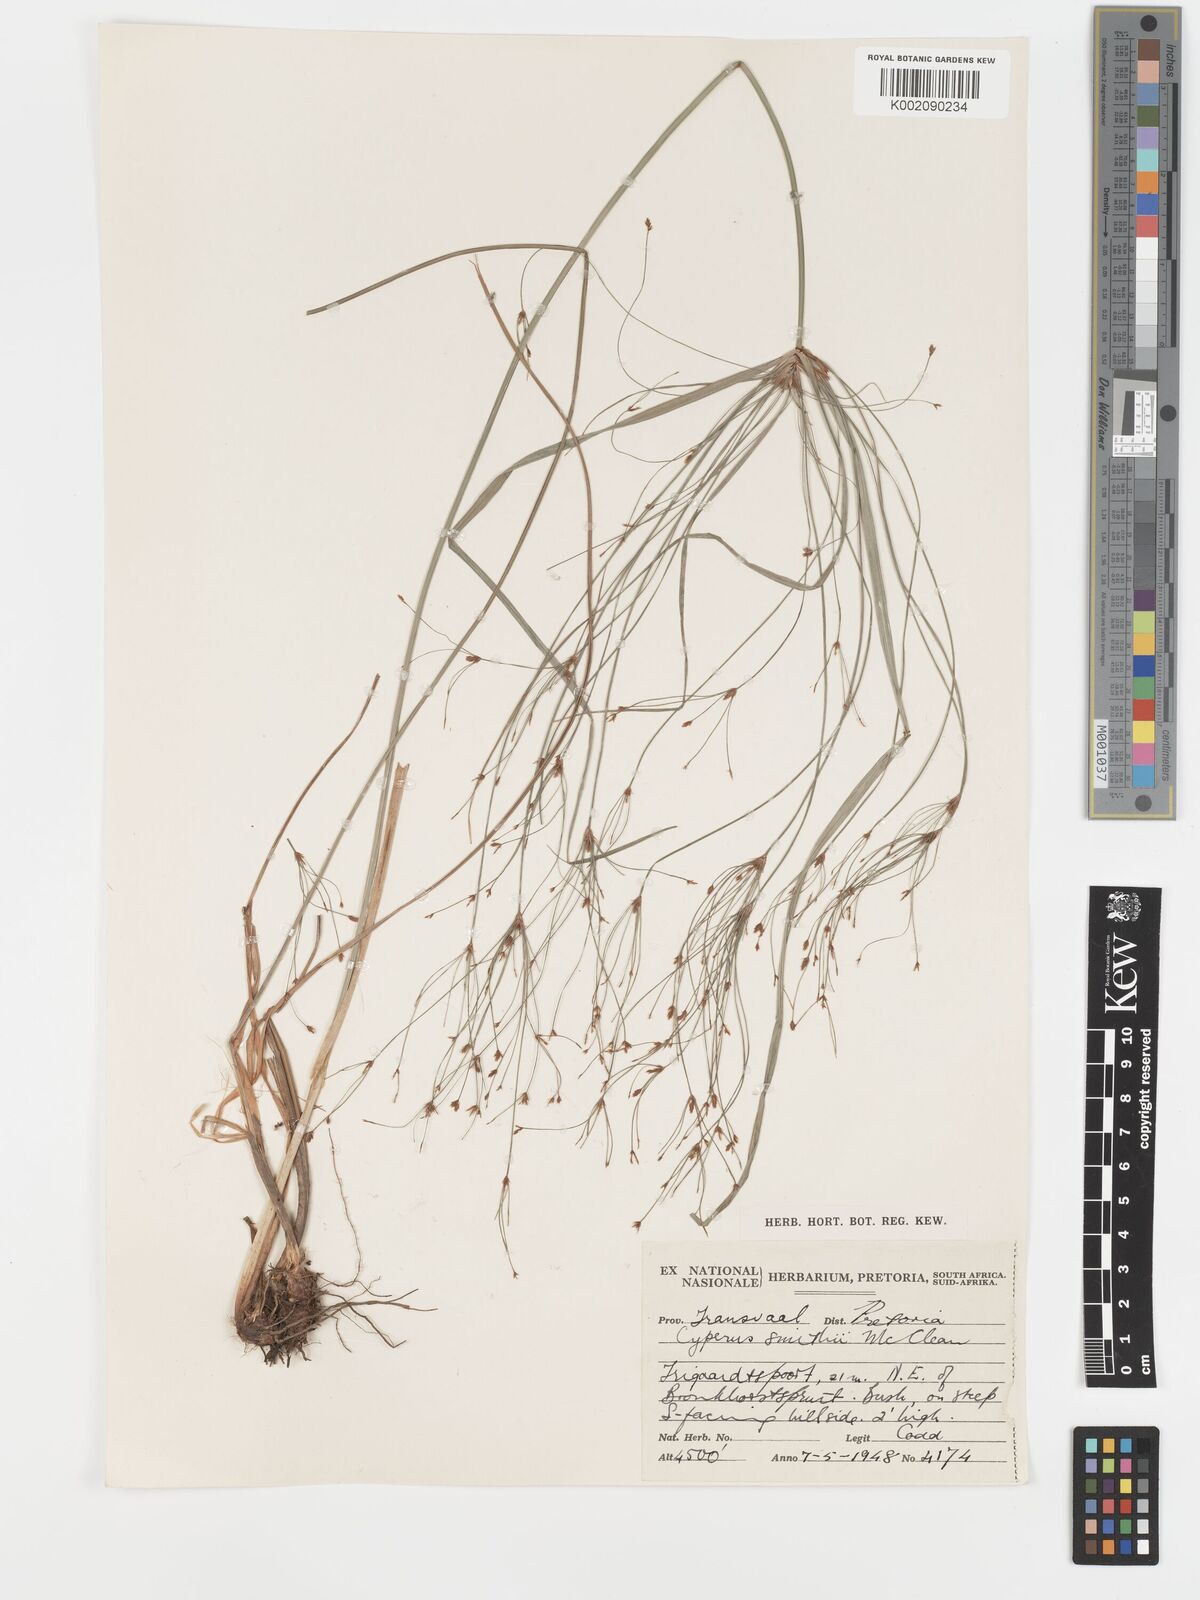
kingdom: Plantae
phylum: Tracheophyta
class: Liliopsida
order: Poales
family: Cyperaceae
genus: Cyperus
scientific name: Cyperus leptocladus
